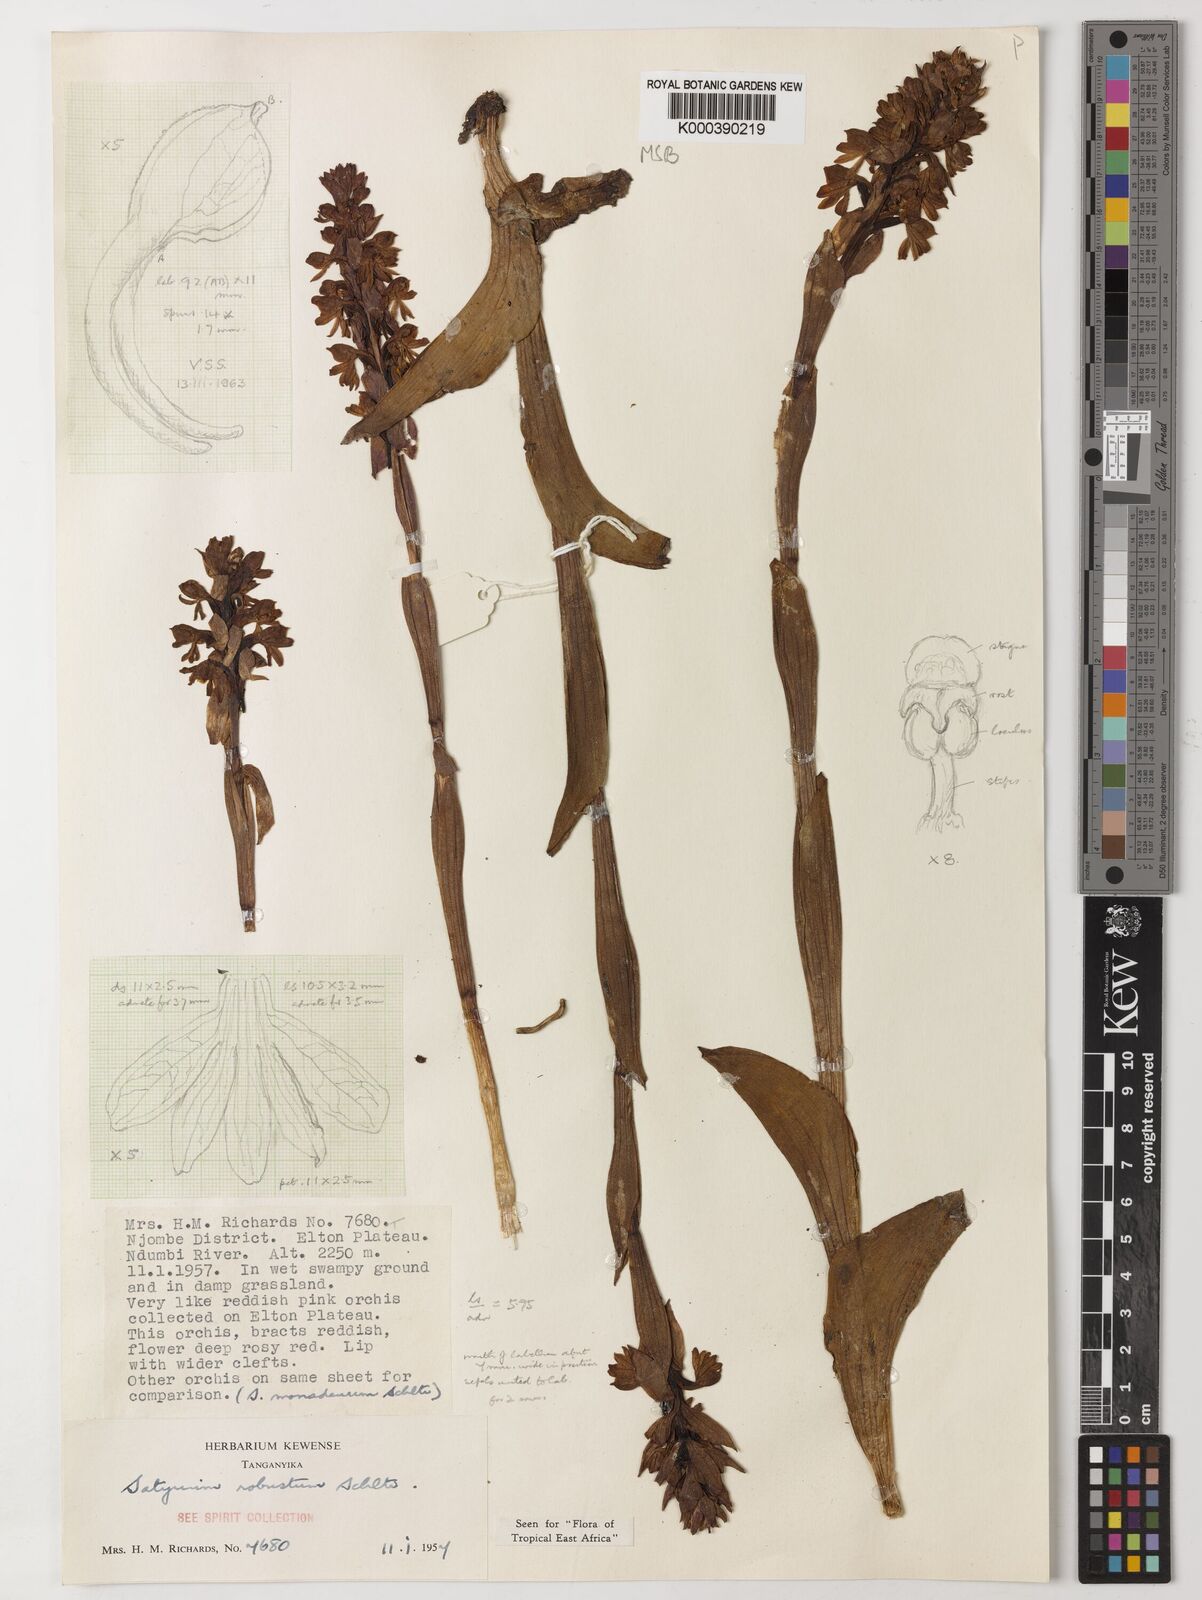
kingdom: Plantae
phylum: Tracheophyta
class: Liliopsida
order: Asparagales
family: Orchidaceae
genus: Satyrium
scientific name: Satyrium robustum
